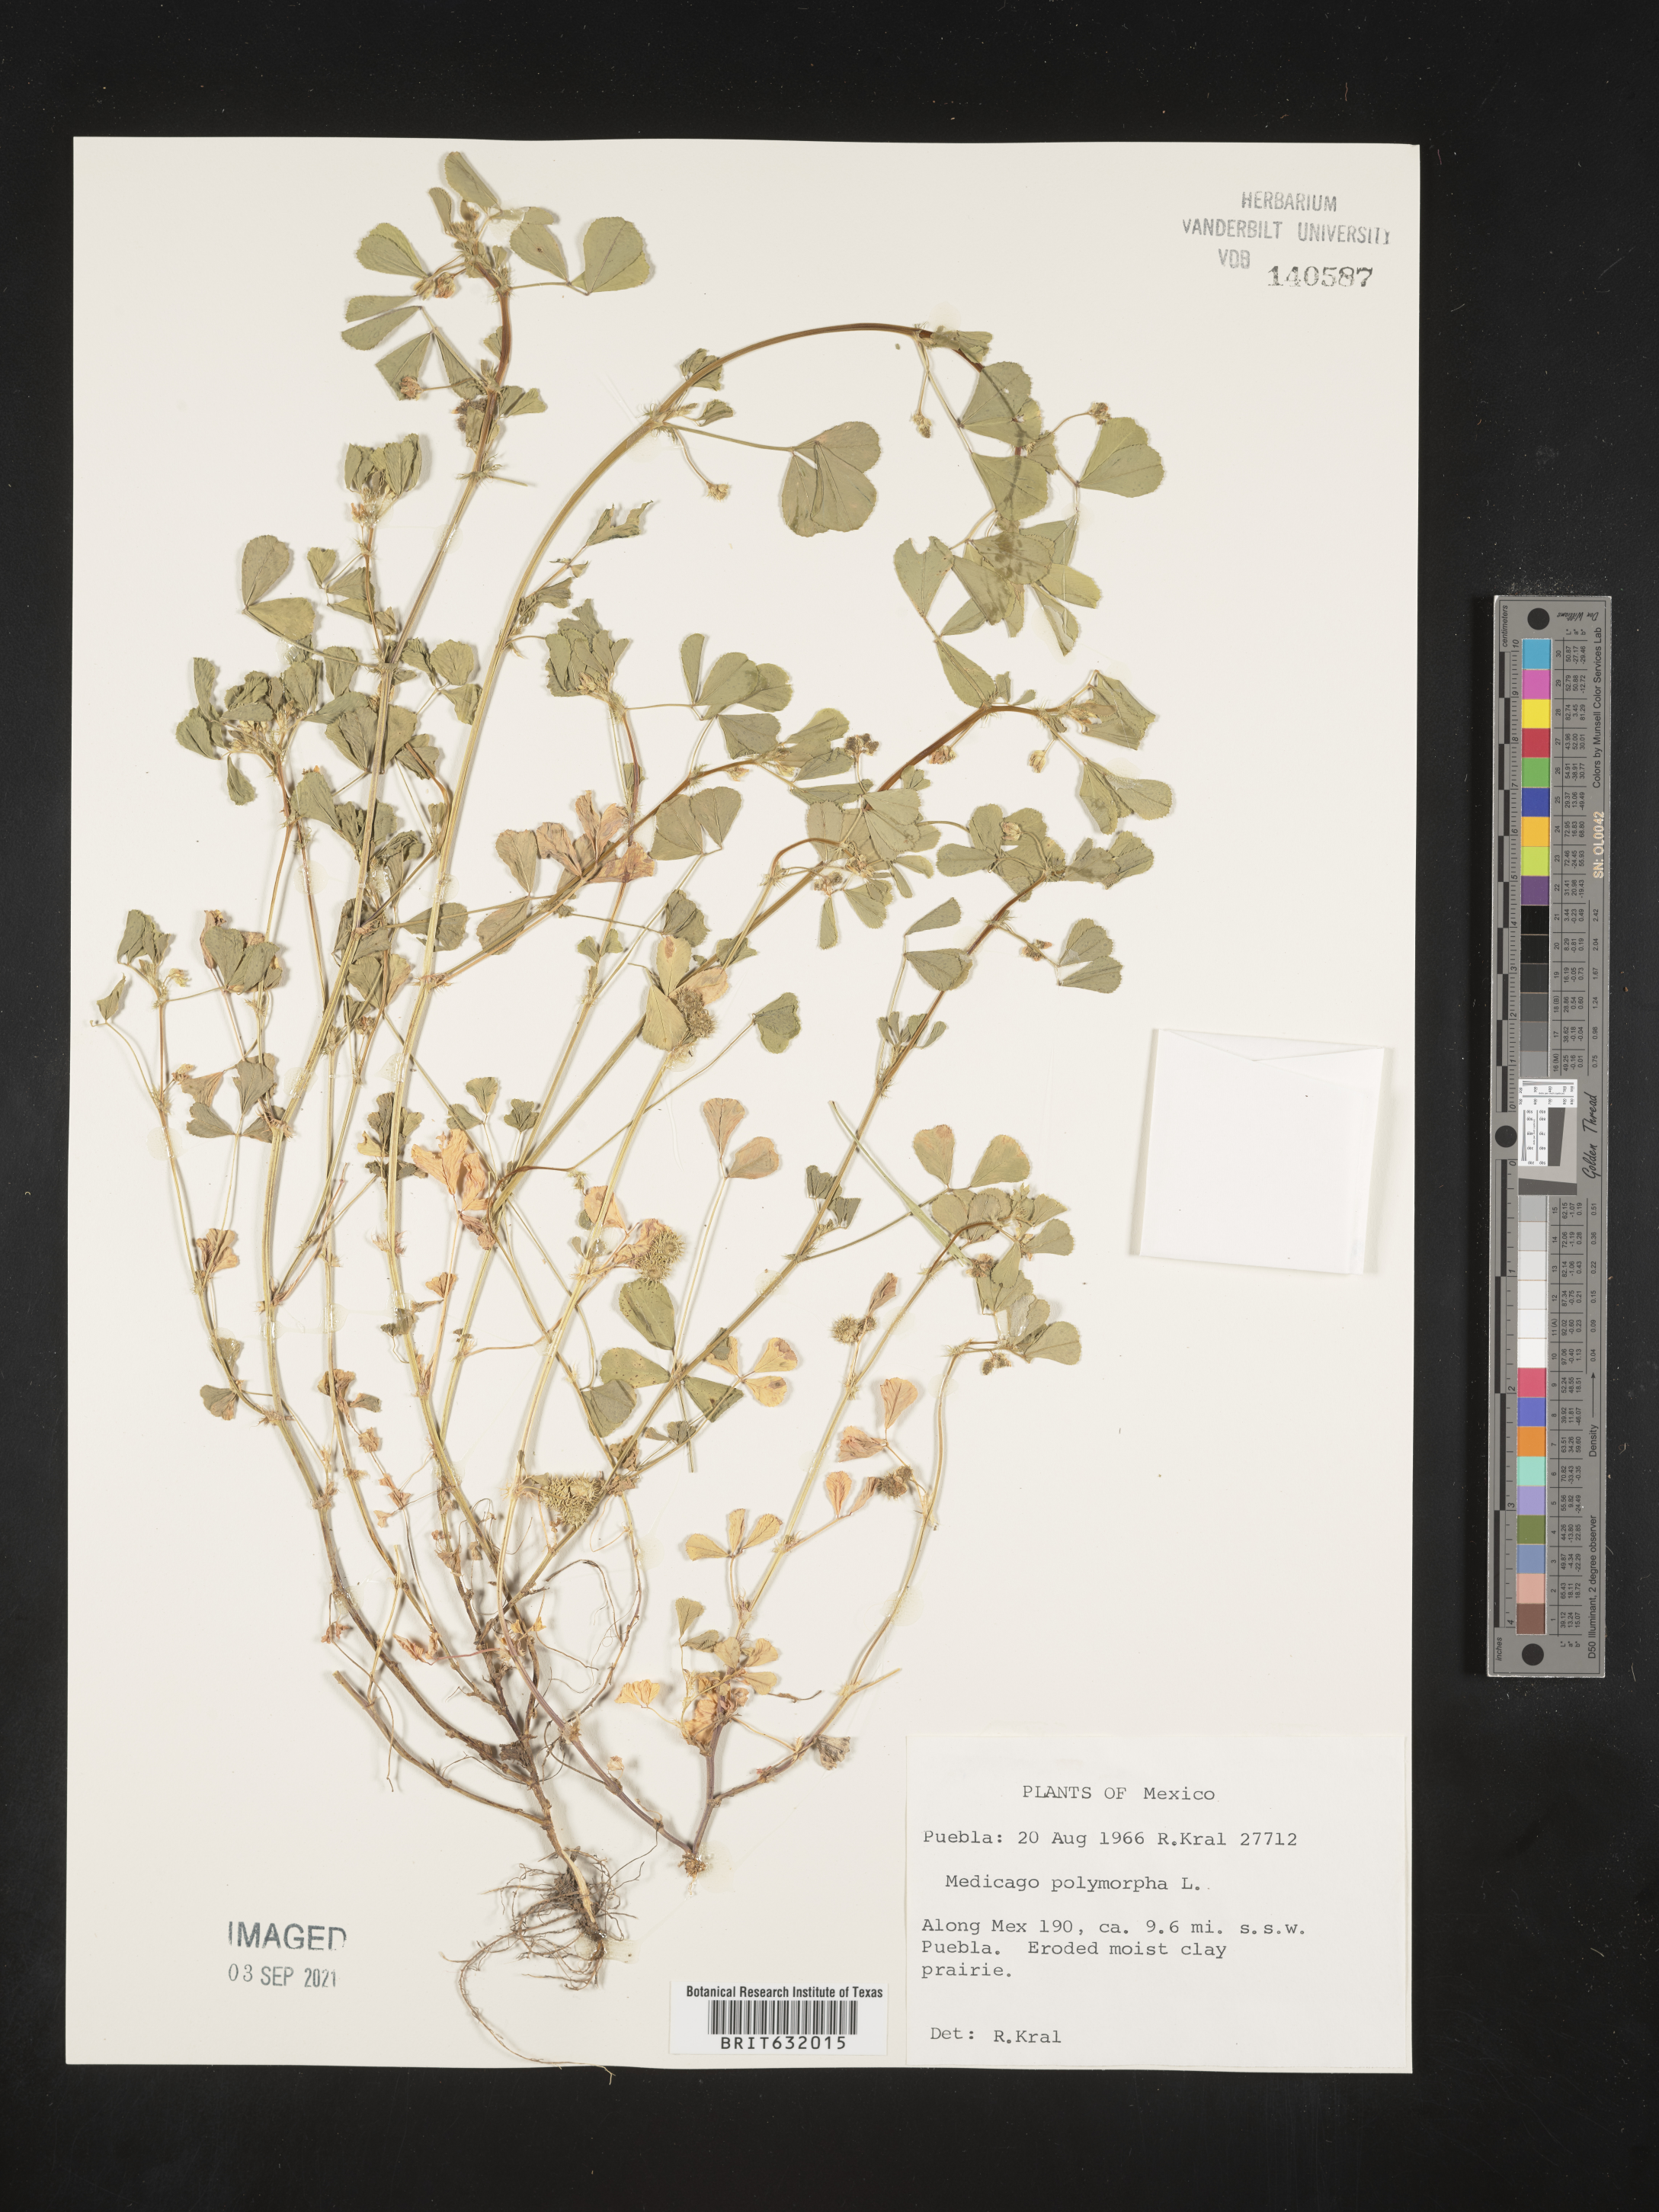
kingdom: Plantae
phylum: Tracheophyta
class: Magnoliopsida
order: Fabales
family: Fabaceae
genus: Medicago
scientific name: Medicago
